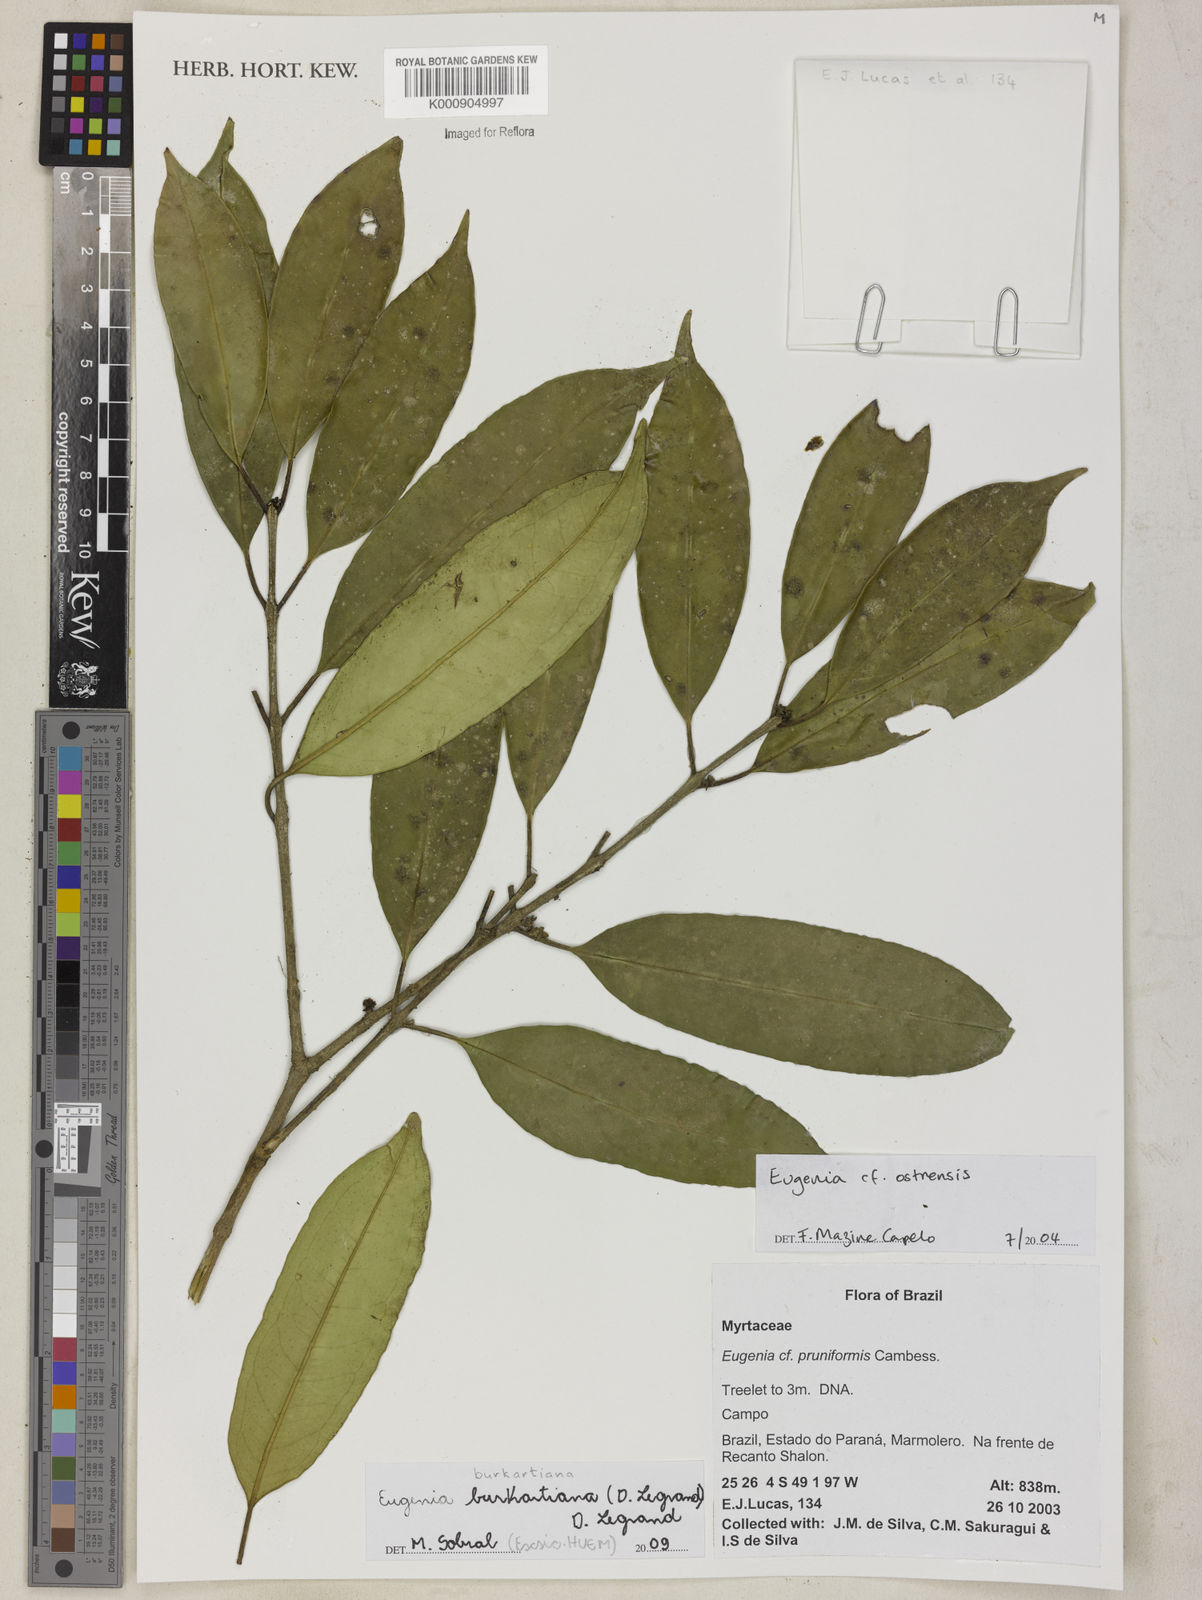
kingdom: Plantae
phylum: Tracheophyta
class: Magnoliopsida
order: Myrtales
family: Myrtaceae
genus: Eugenia
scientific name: Eugenia burkartiana
